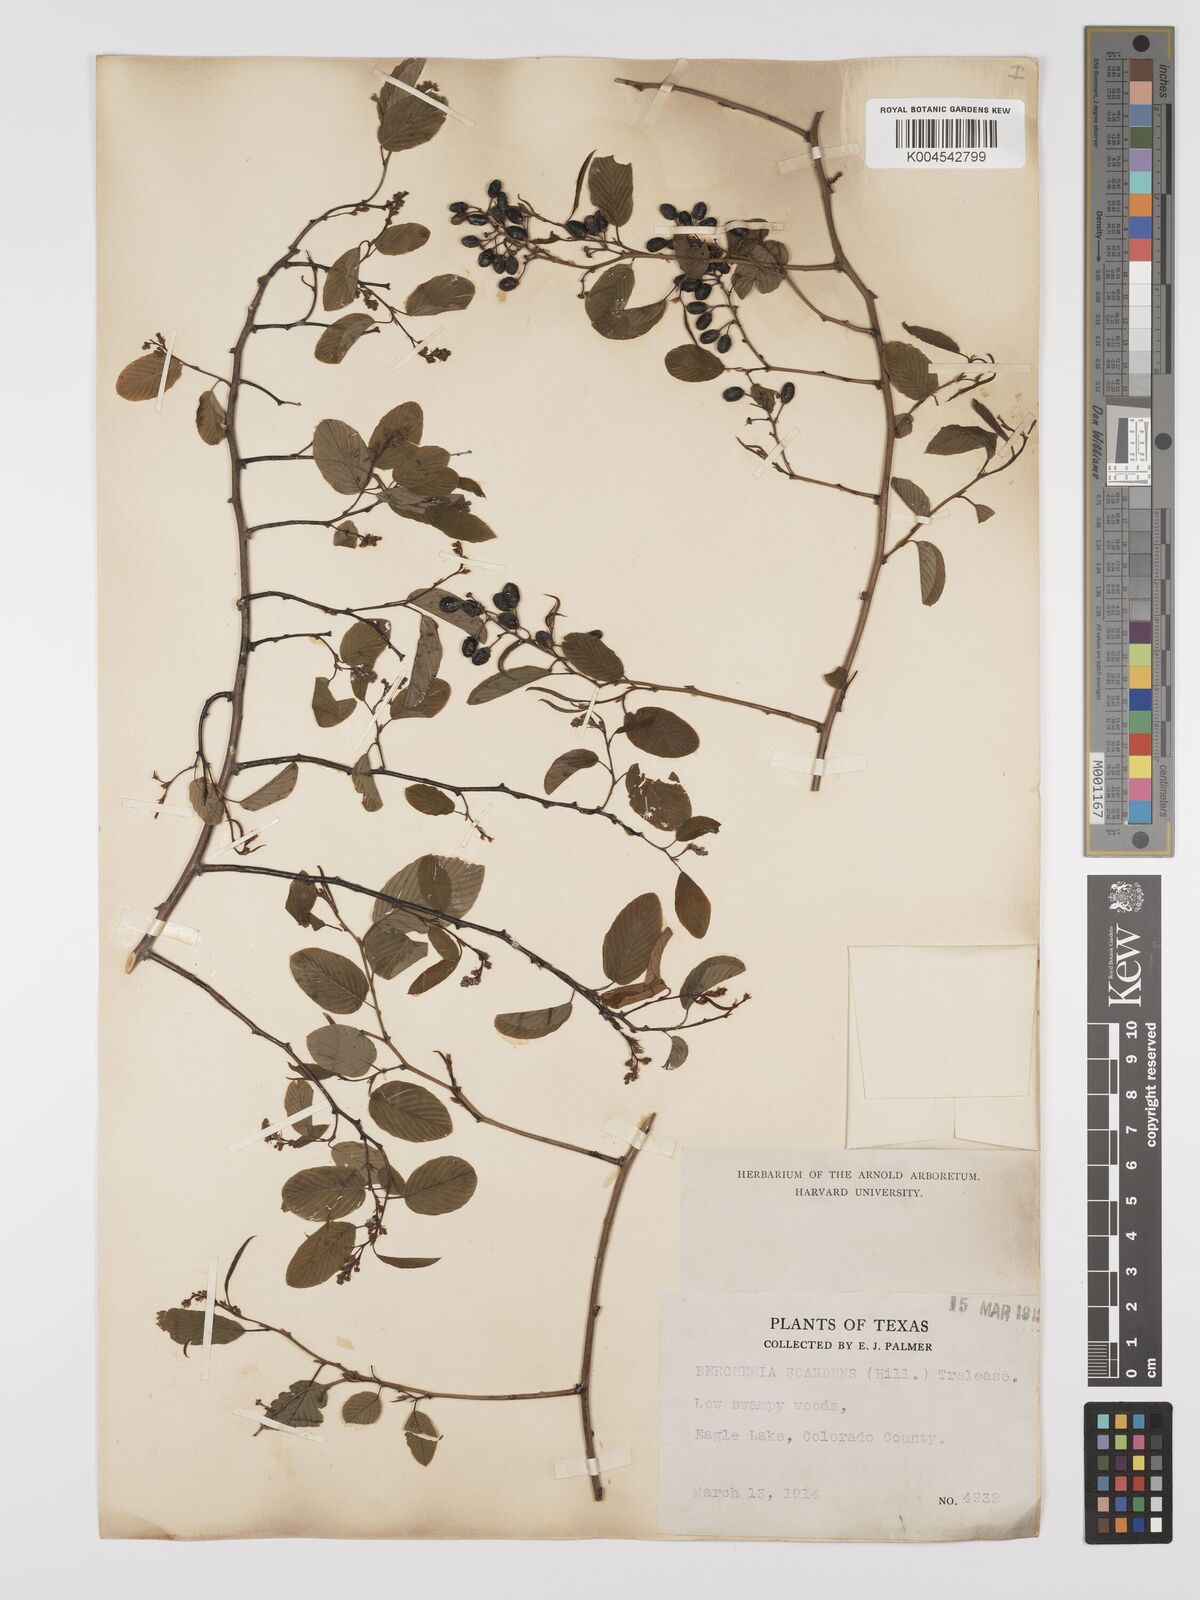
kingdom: Plantae
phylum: Tracheophyta
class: Magnoliopsida
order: Rosales
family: Rhamnaceae
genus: Berchemia
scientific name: Berchemia scandens
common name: Supplejack
